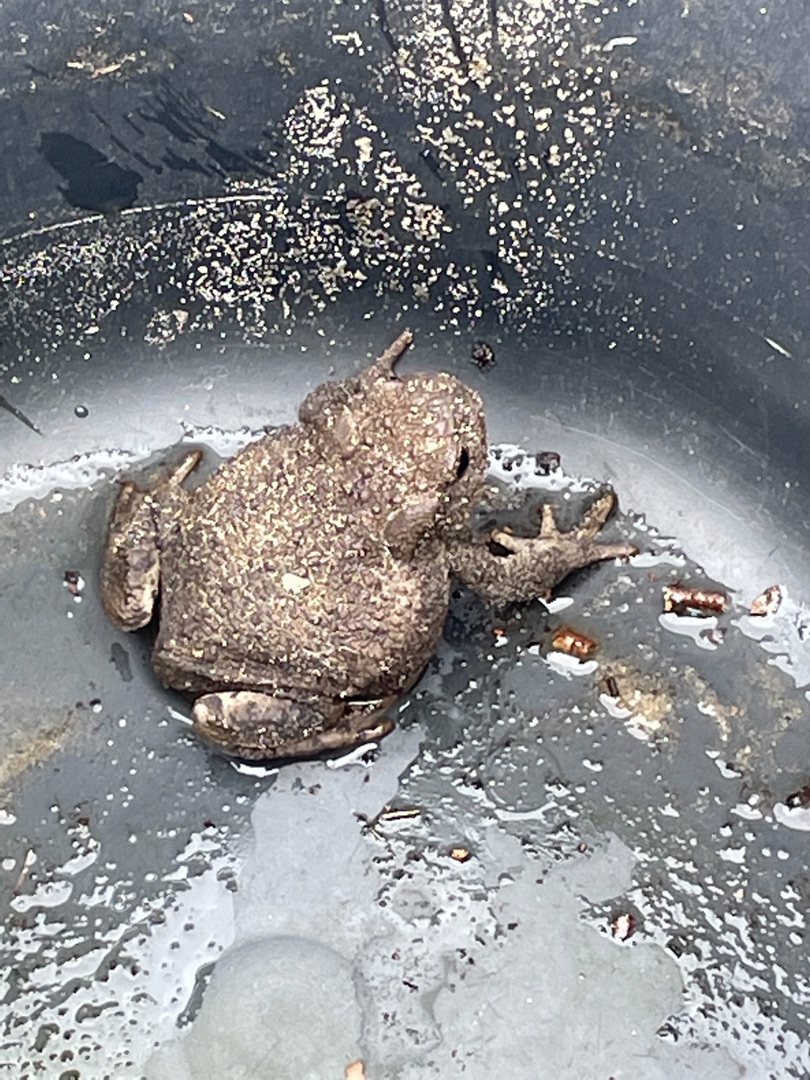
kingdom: Animalia
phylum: Chordata
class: Amphibia
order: Anura
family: Bufonidae
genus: Bufo
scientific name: Bufo bufo
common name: Skrubtudse
